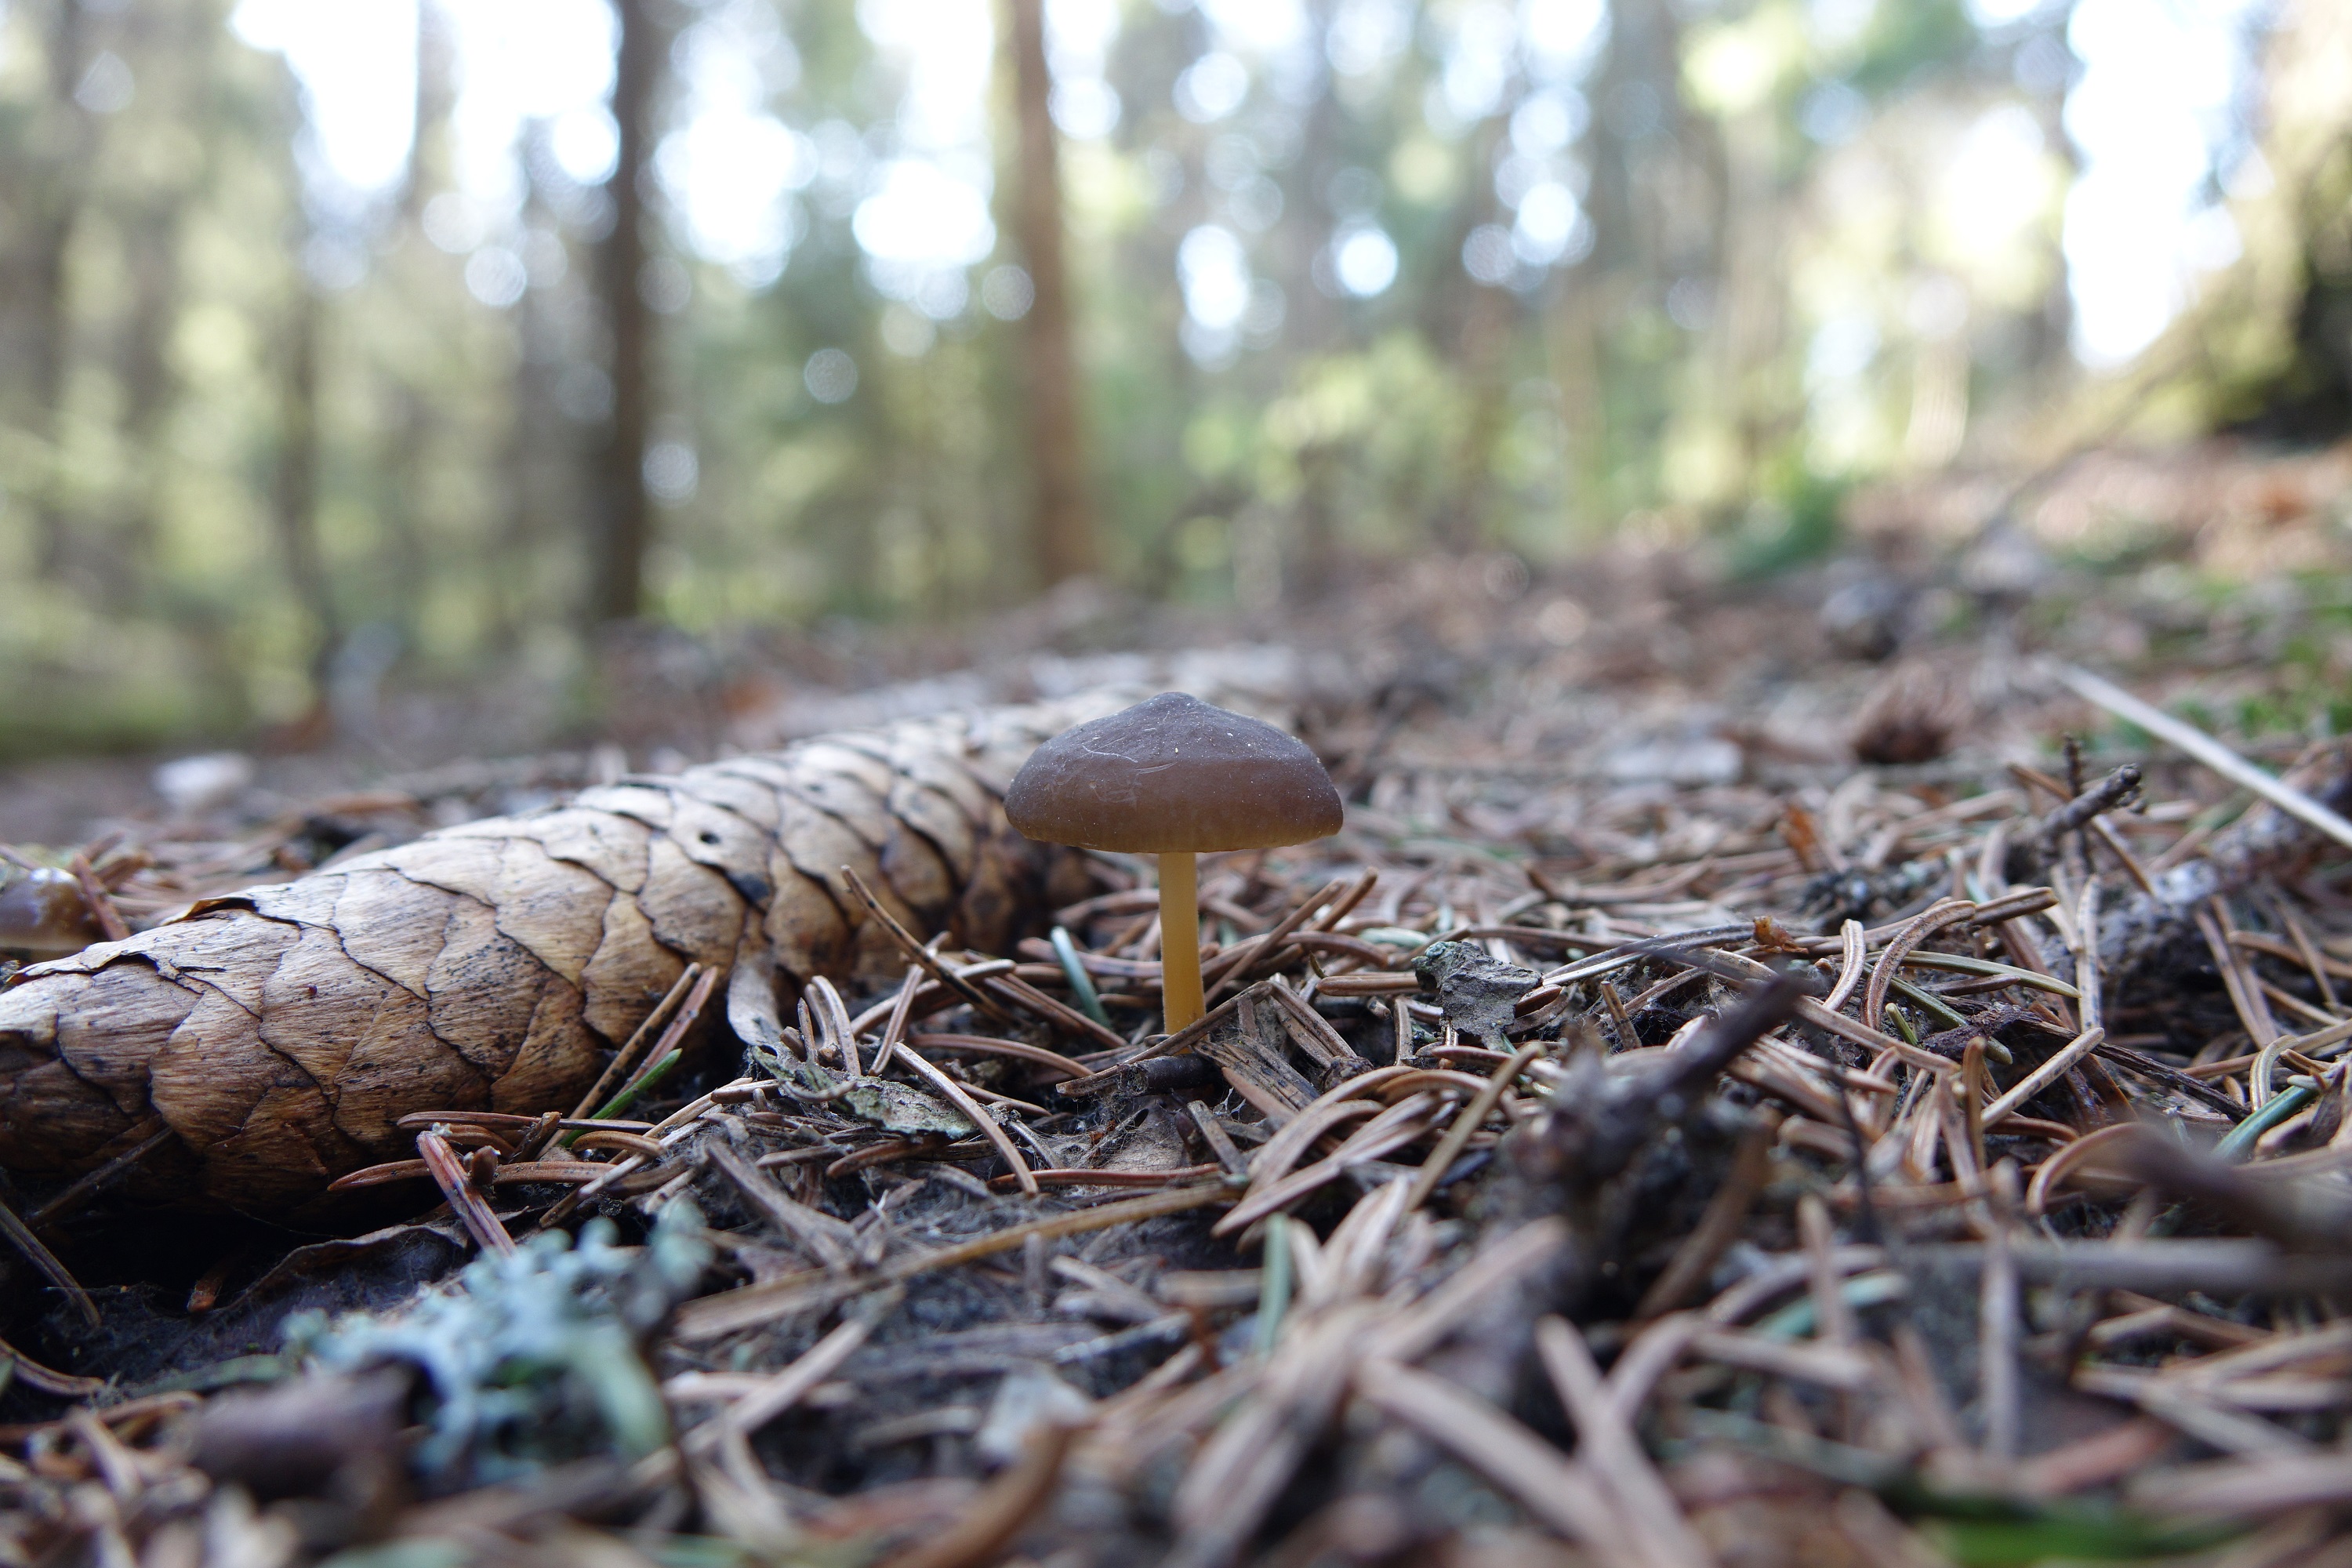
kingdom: Fungi
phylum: Basidiomycota
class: Agaricomycetes
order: Agaricales
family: Physalacriaceae
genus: Strobilurus
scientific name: Strobilurus esculentus
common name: Sprucecone cap
